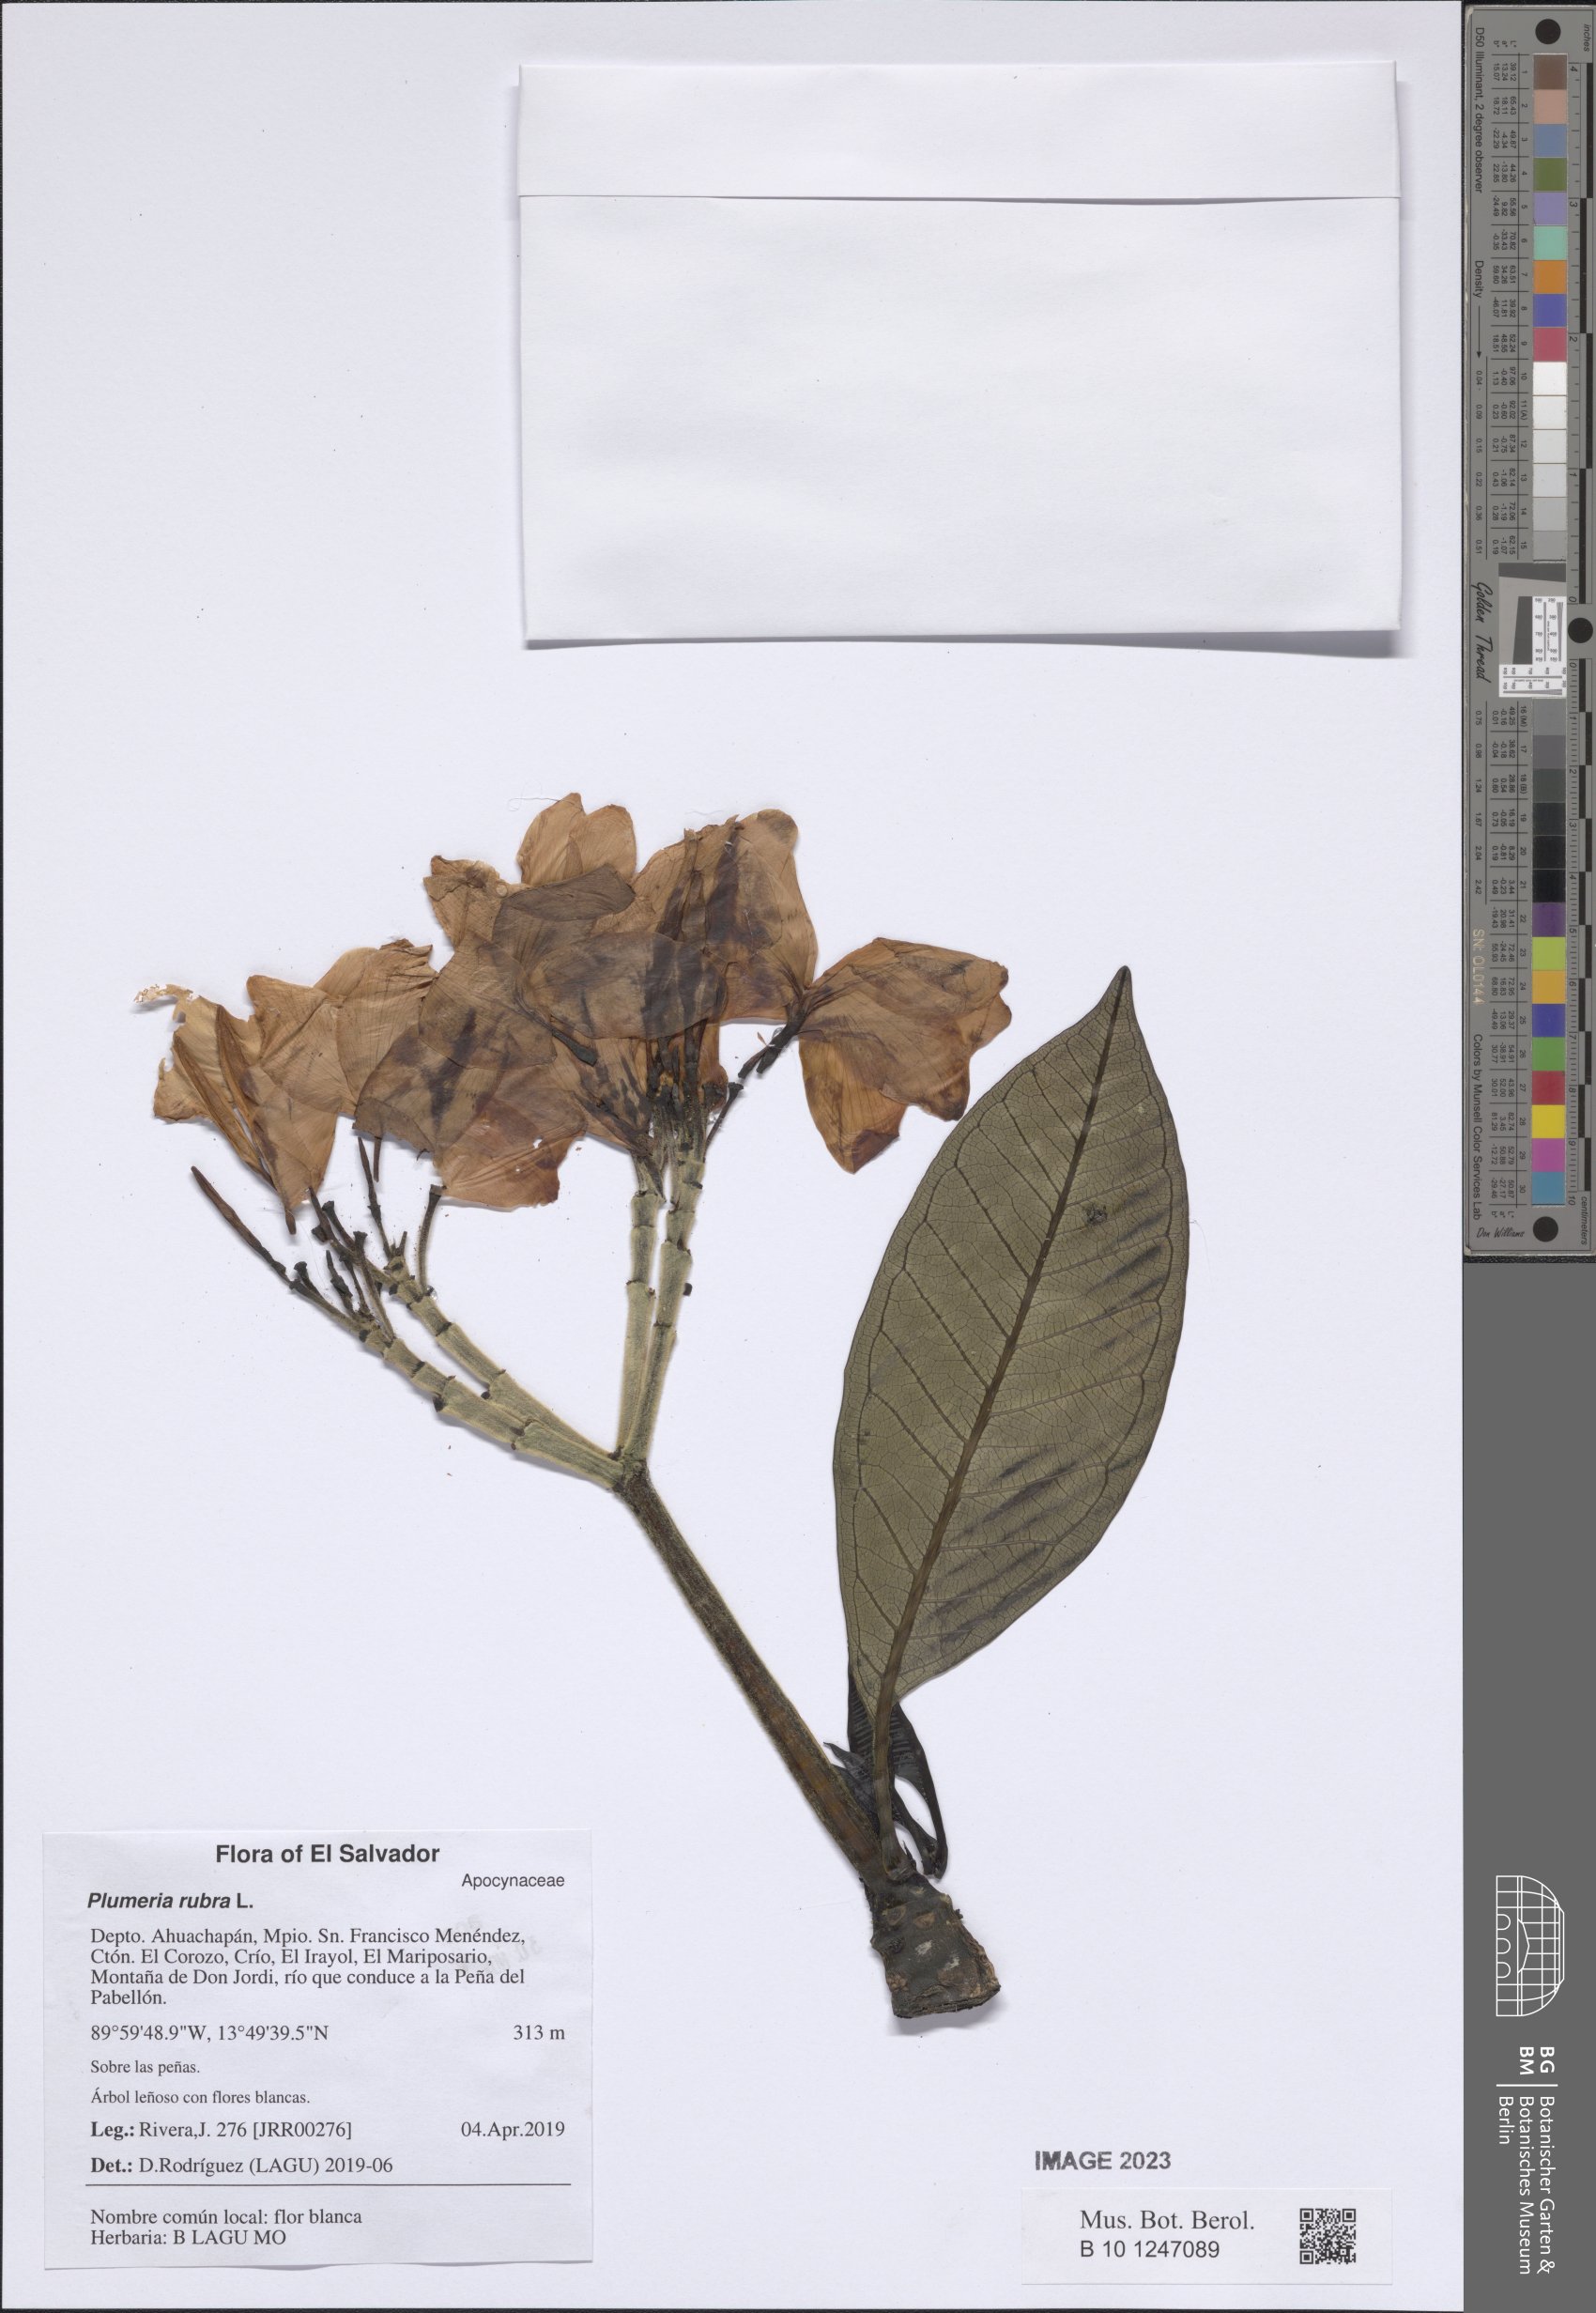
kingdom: Plantae
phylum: Tracheophyta
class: Magnoliopsida
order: Gentianales
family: Apocynaceae
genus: Plumeria
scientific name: Plumeria rubra
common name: Pagoda-tree
